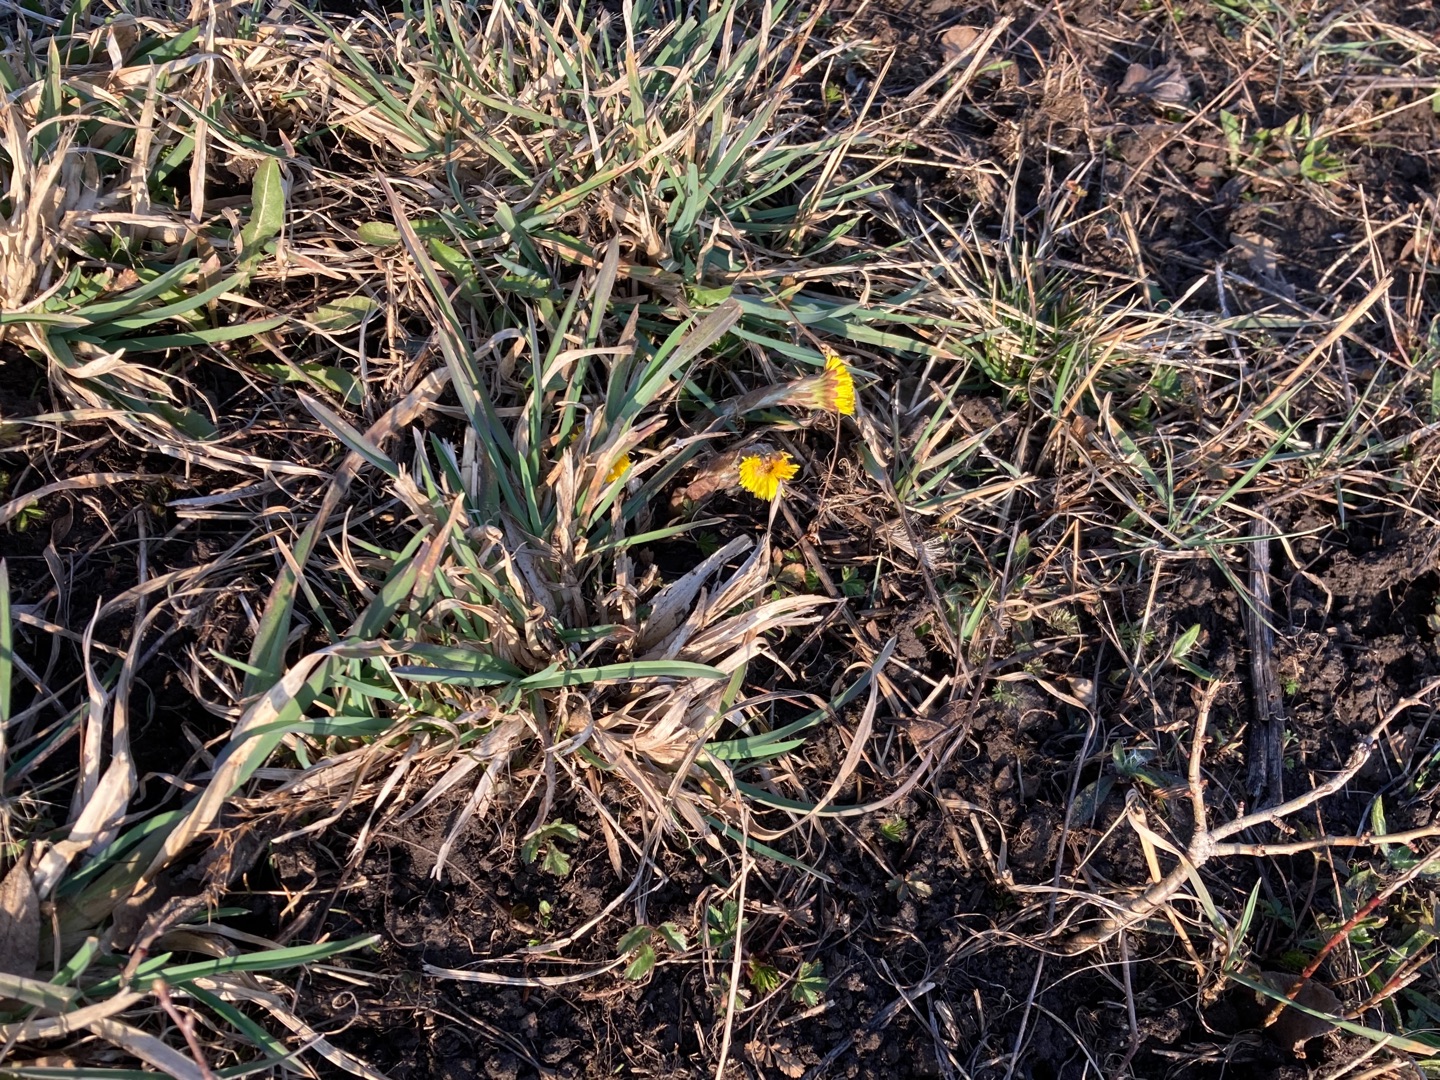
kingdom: Plantae
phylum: Tracheophyta
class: Magnoliopsida
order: Asterales
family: Asteraceae
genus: Tussilago
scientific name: Tussilago farfara
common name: Følfod
